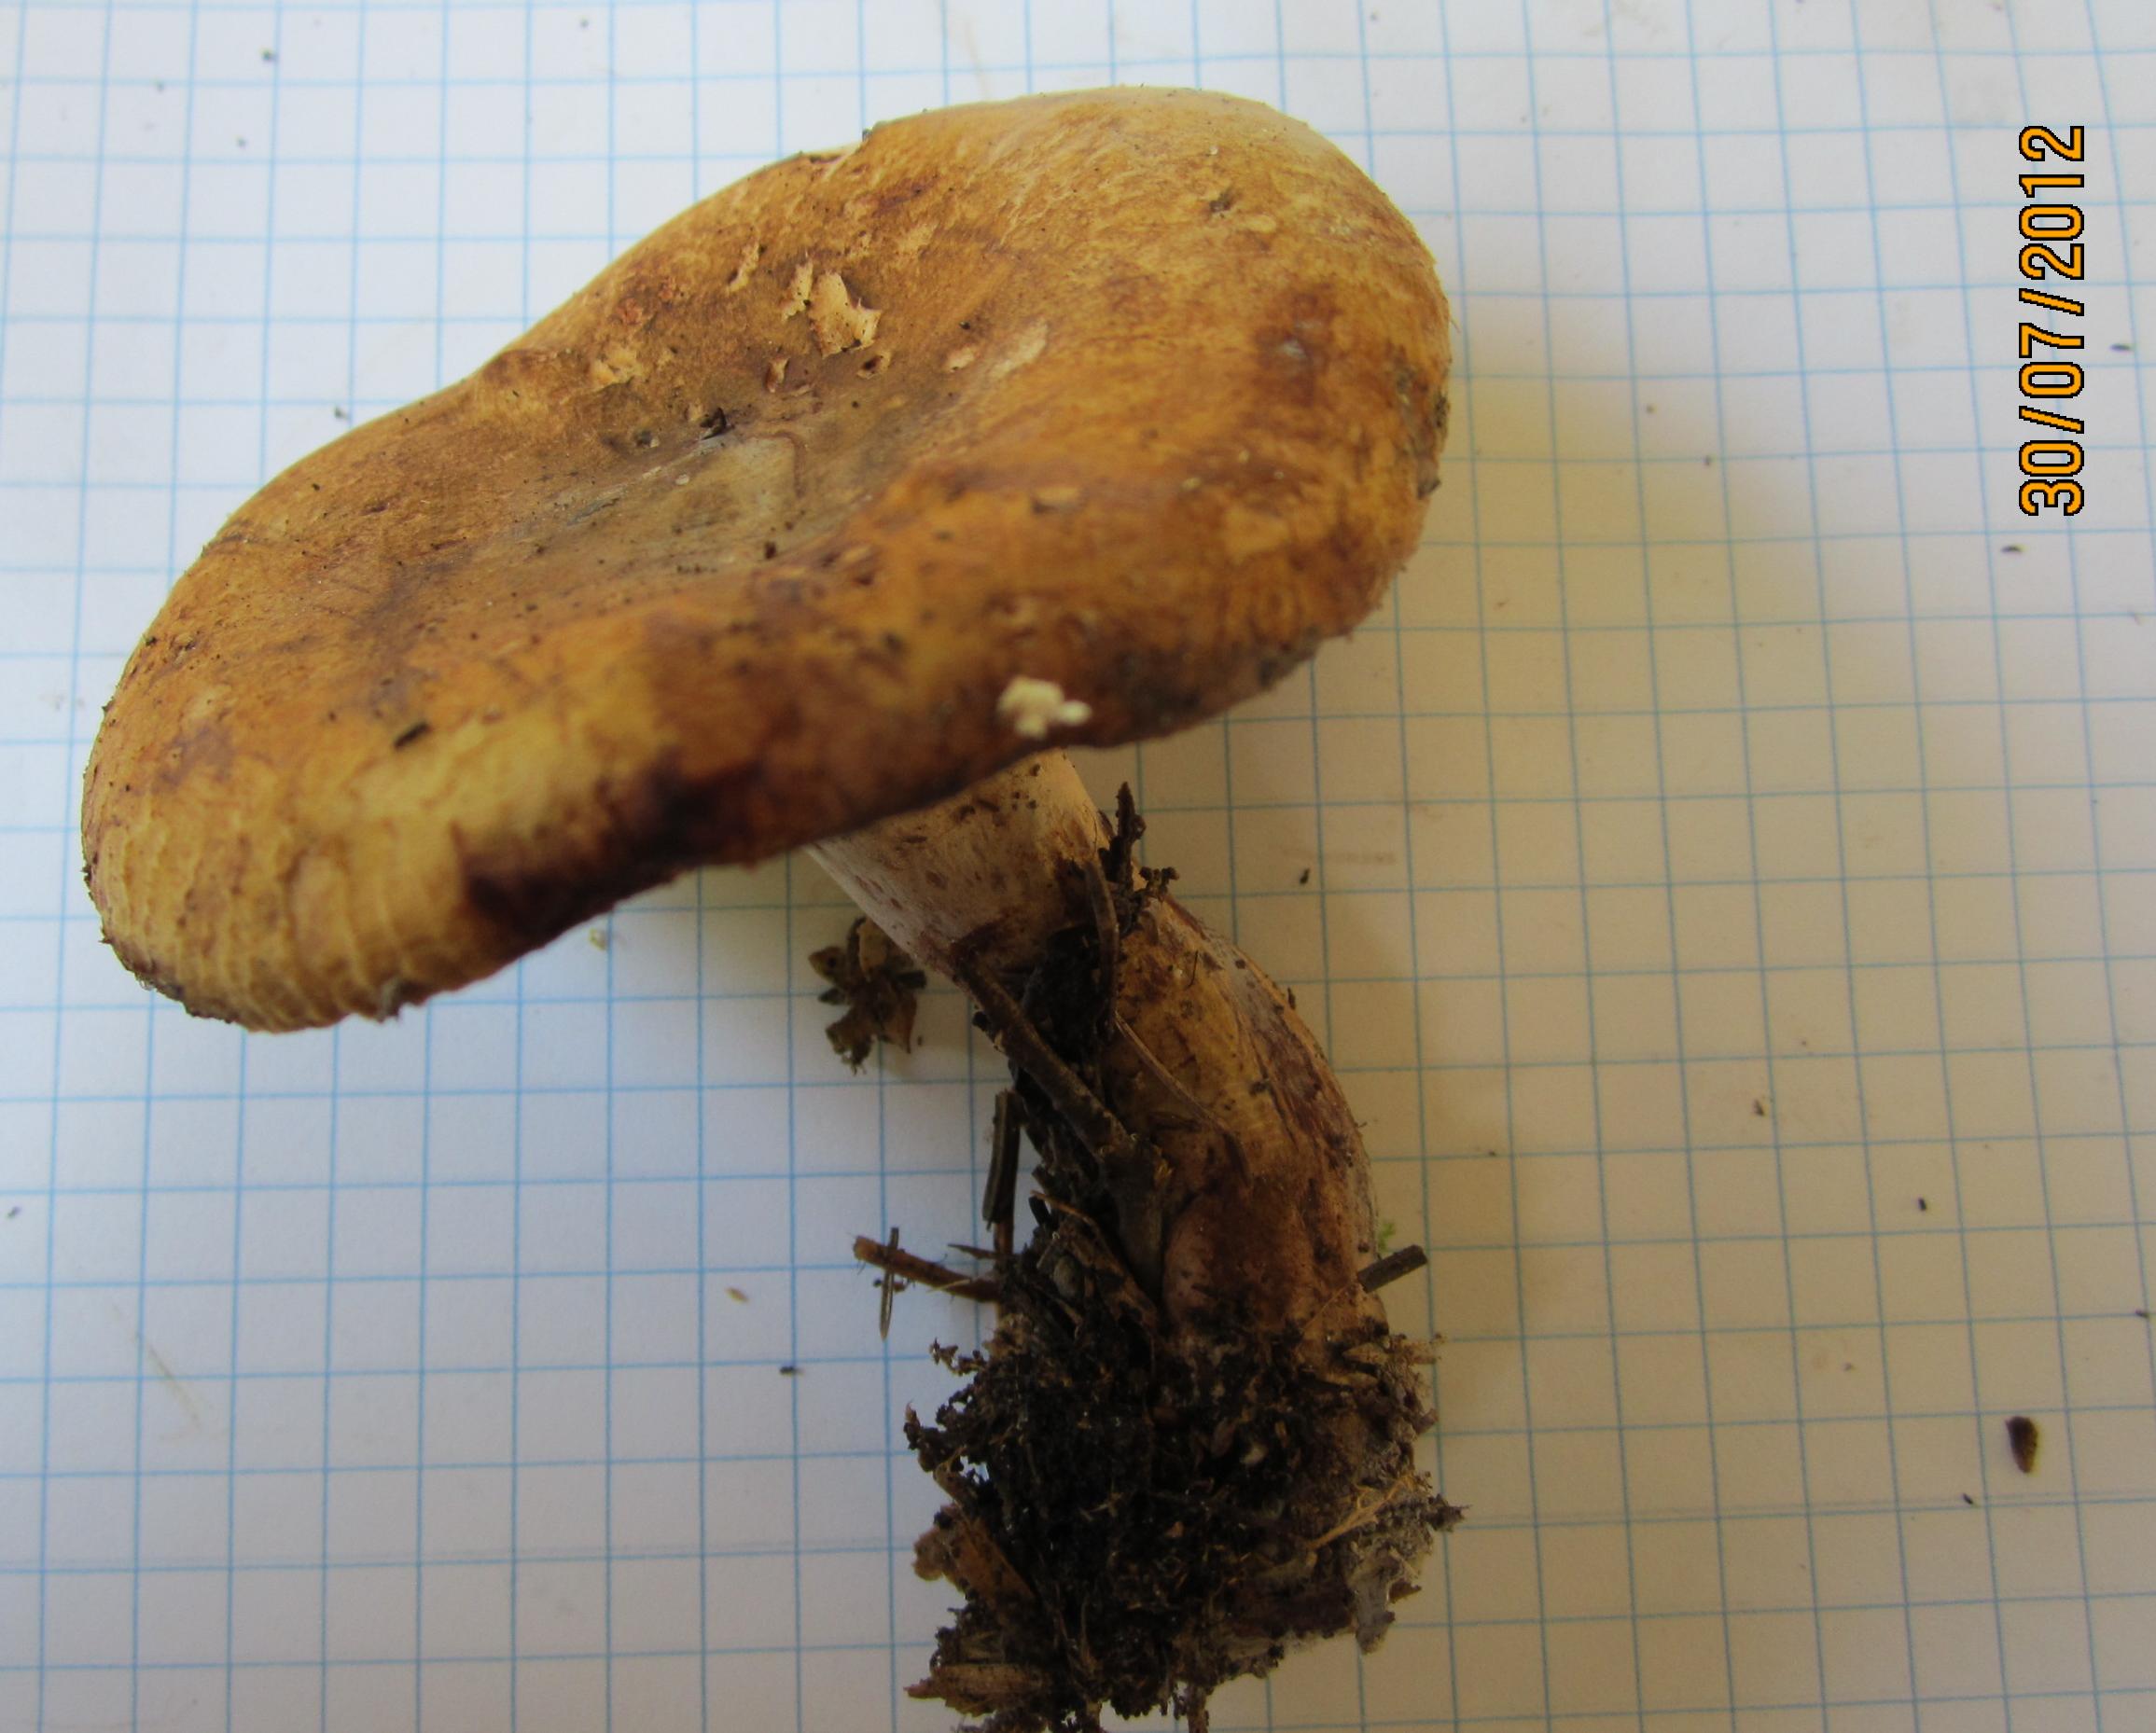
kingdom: Fungi
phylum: Basidiomycota
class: Agaricomycetes
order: Boletales
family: Paxillaceae
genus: Paxillus
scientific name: Paxillus involutus
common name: almindelig netbladhat
